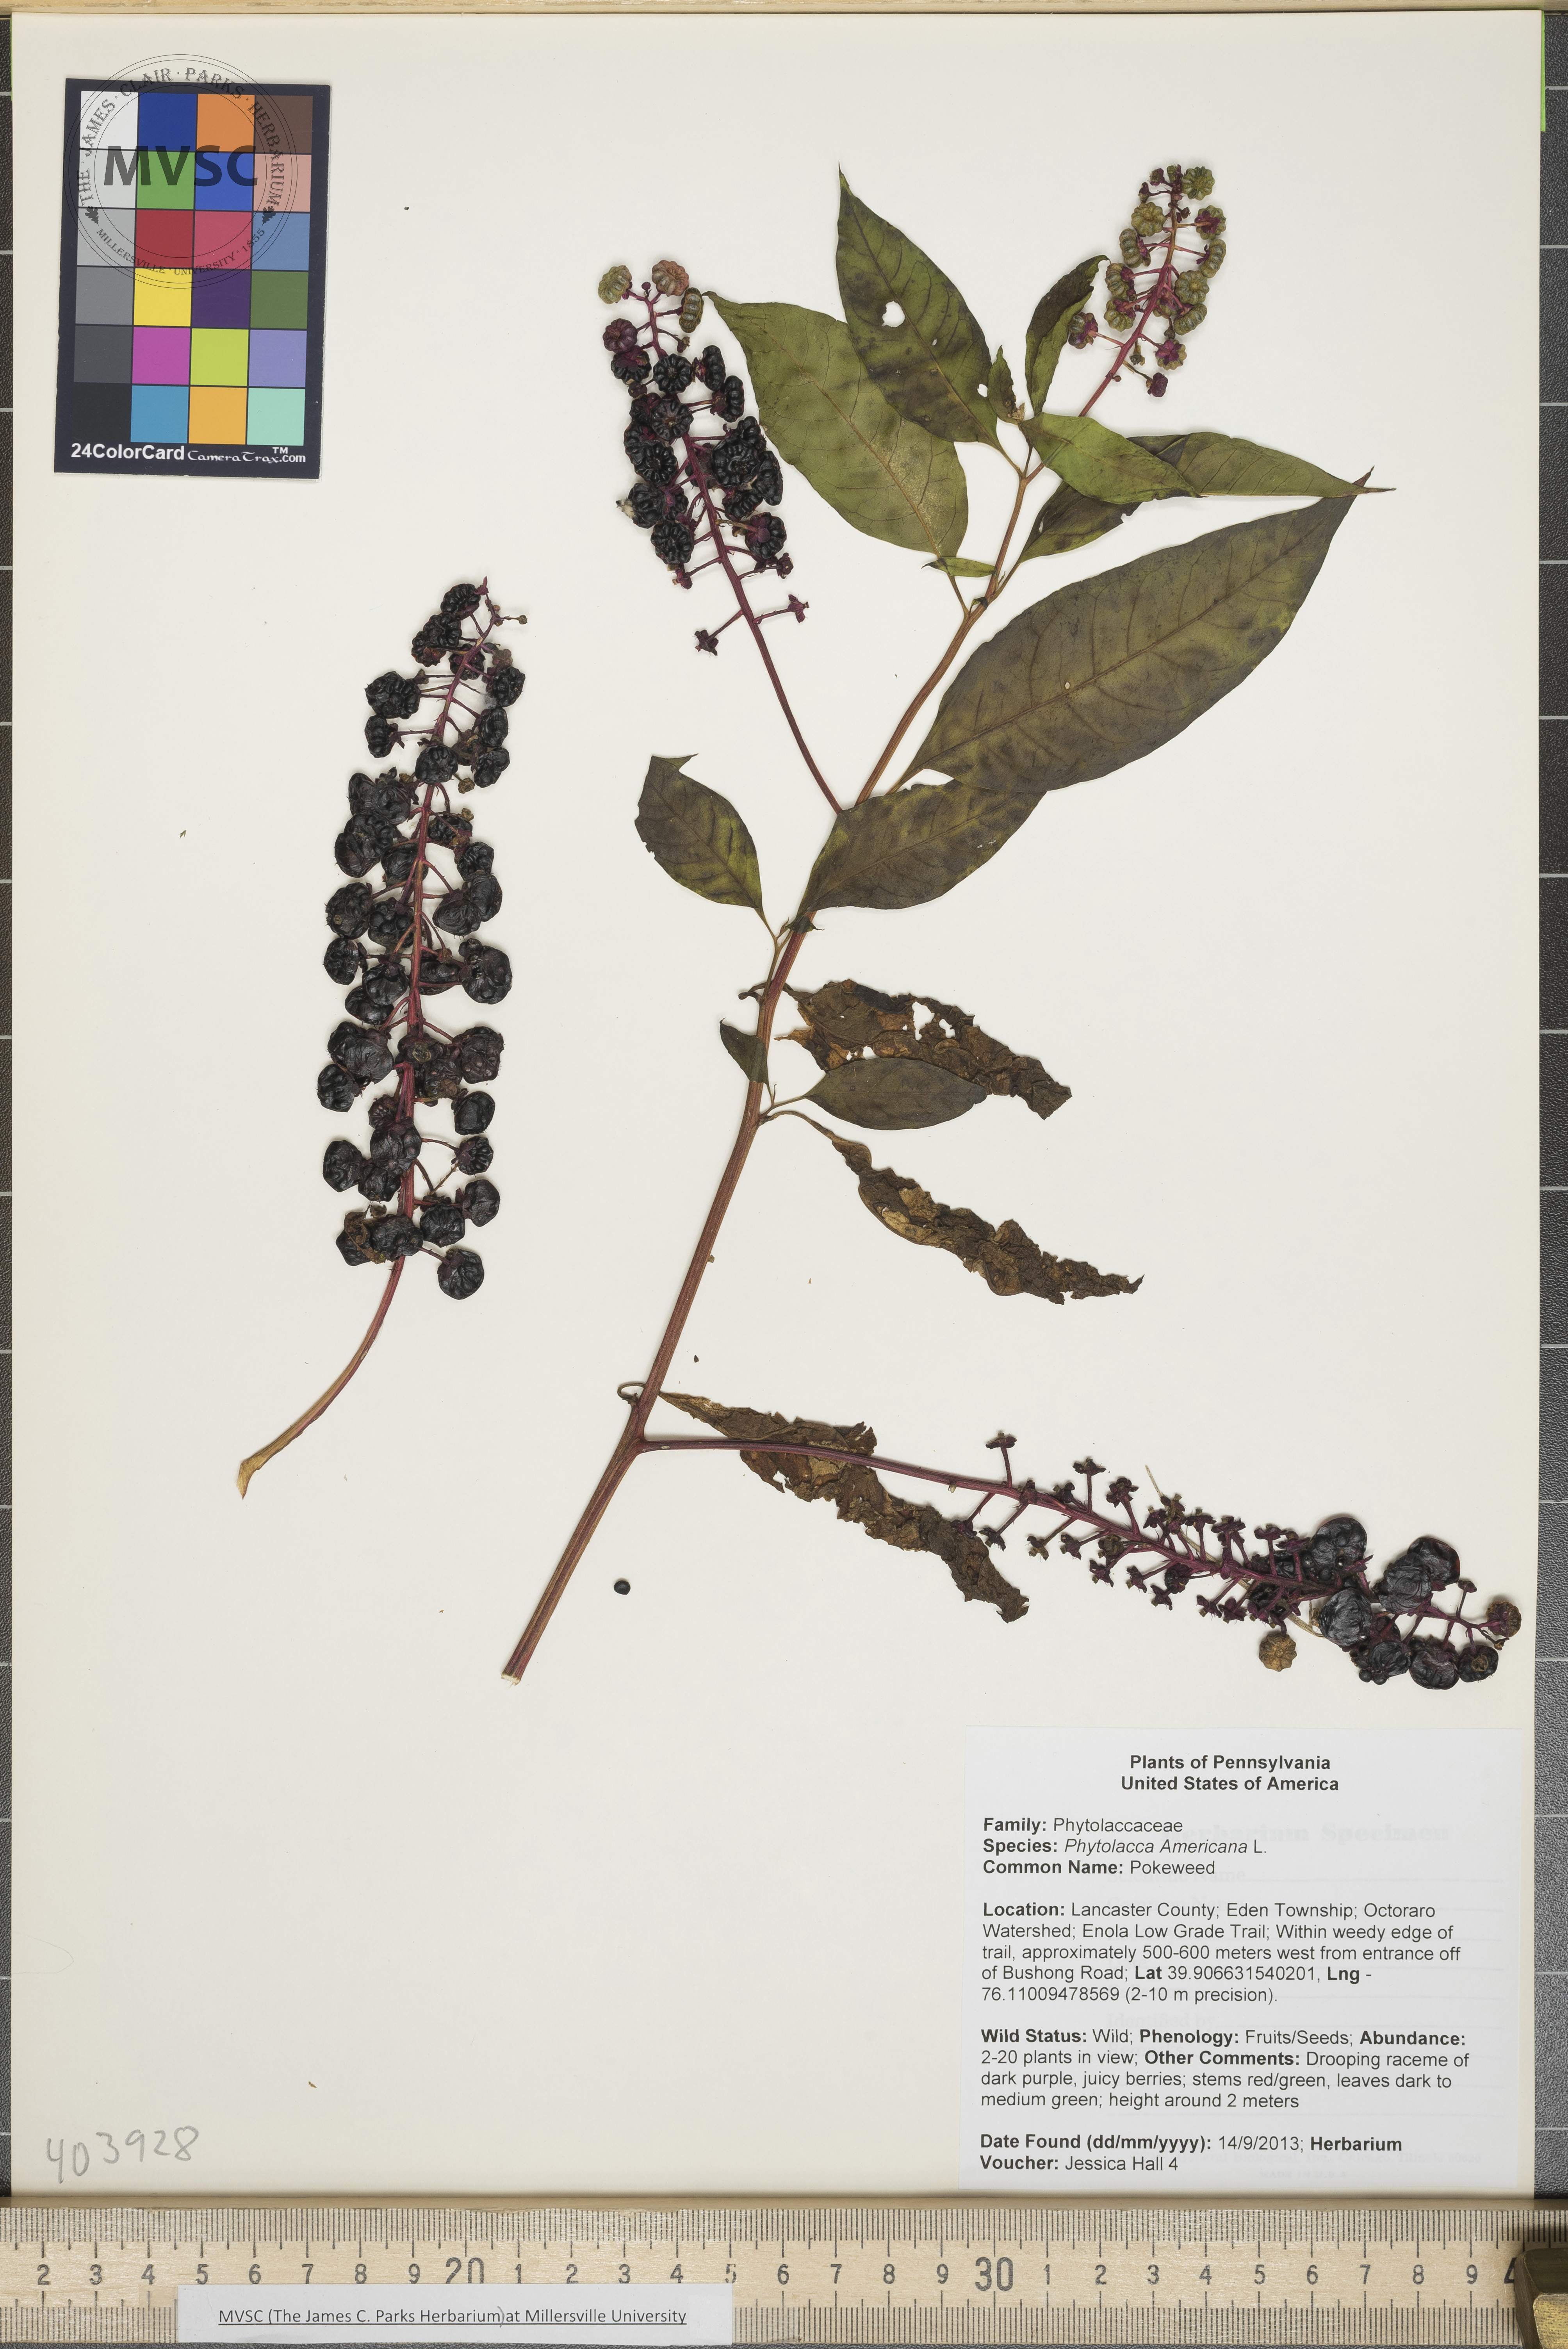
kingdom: Plantae
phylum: Tracheophyta
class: Magnoliopsida
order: Caryophyllales
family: Phytolaccaceae
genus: Phytolacca
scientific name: Phytolacca americana
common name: Pokeweed
